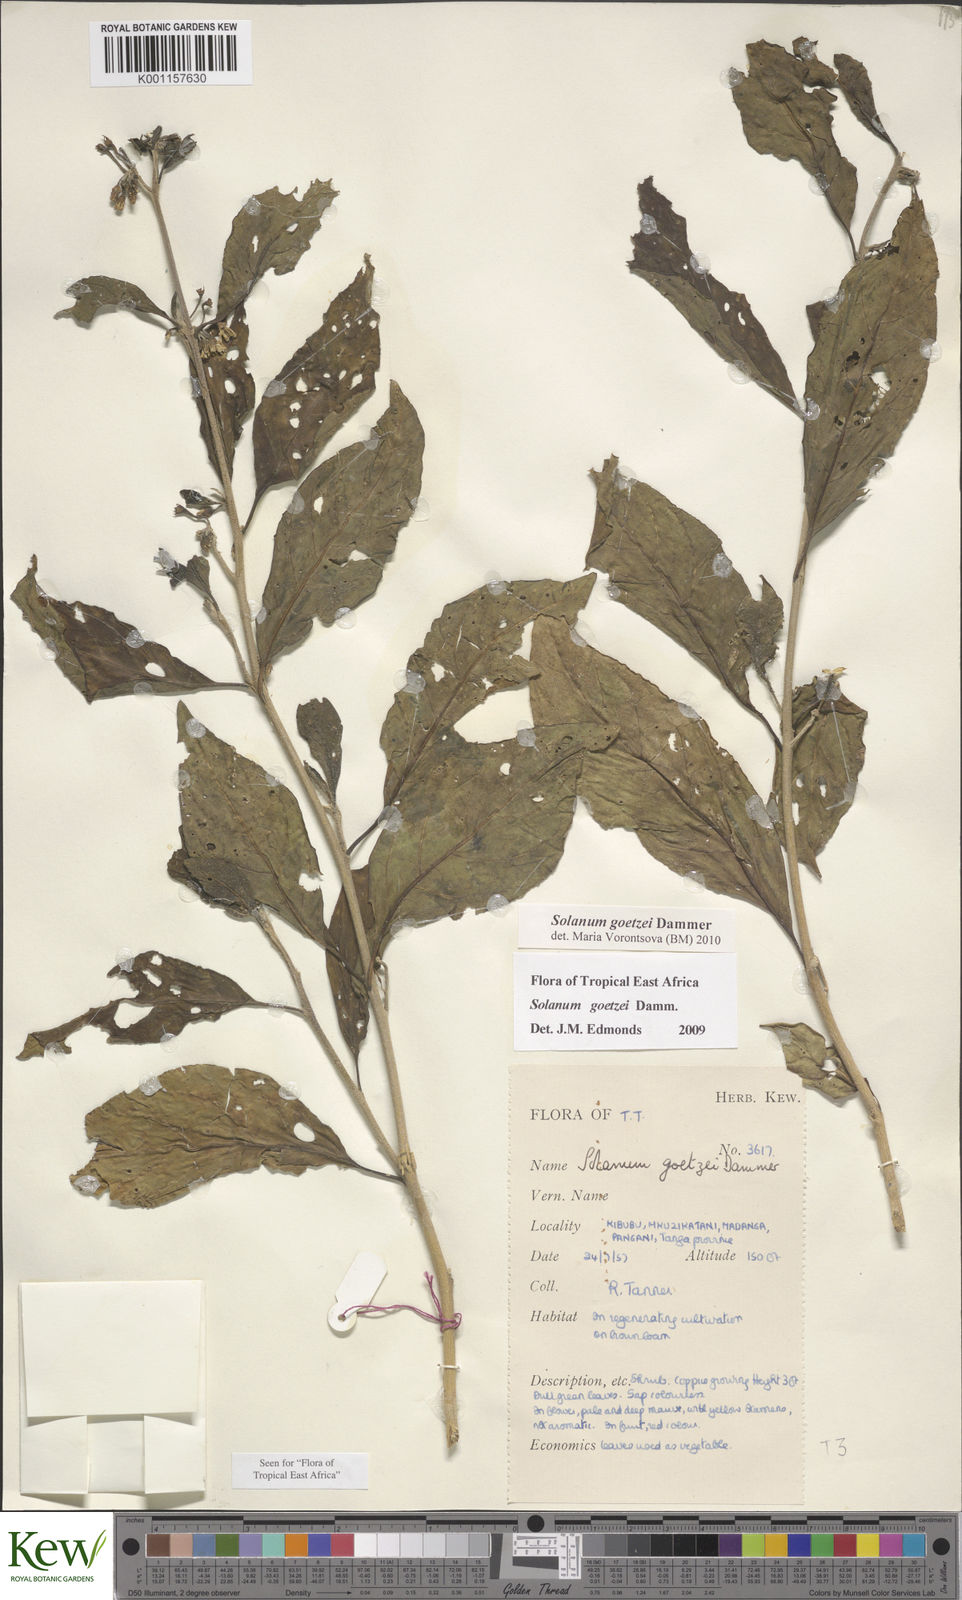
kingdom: Plantae
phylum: Tracheophyta
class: Magnoliopsida
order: Solanales
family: Solanaceae
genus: Solanum
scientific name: Solanum goetzei
